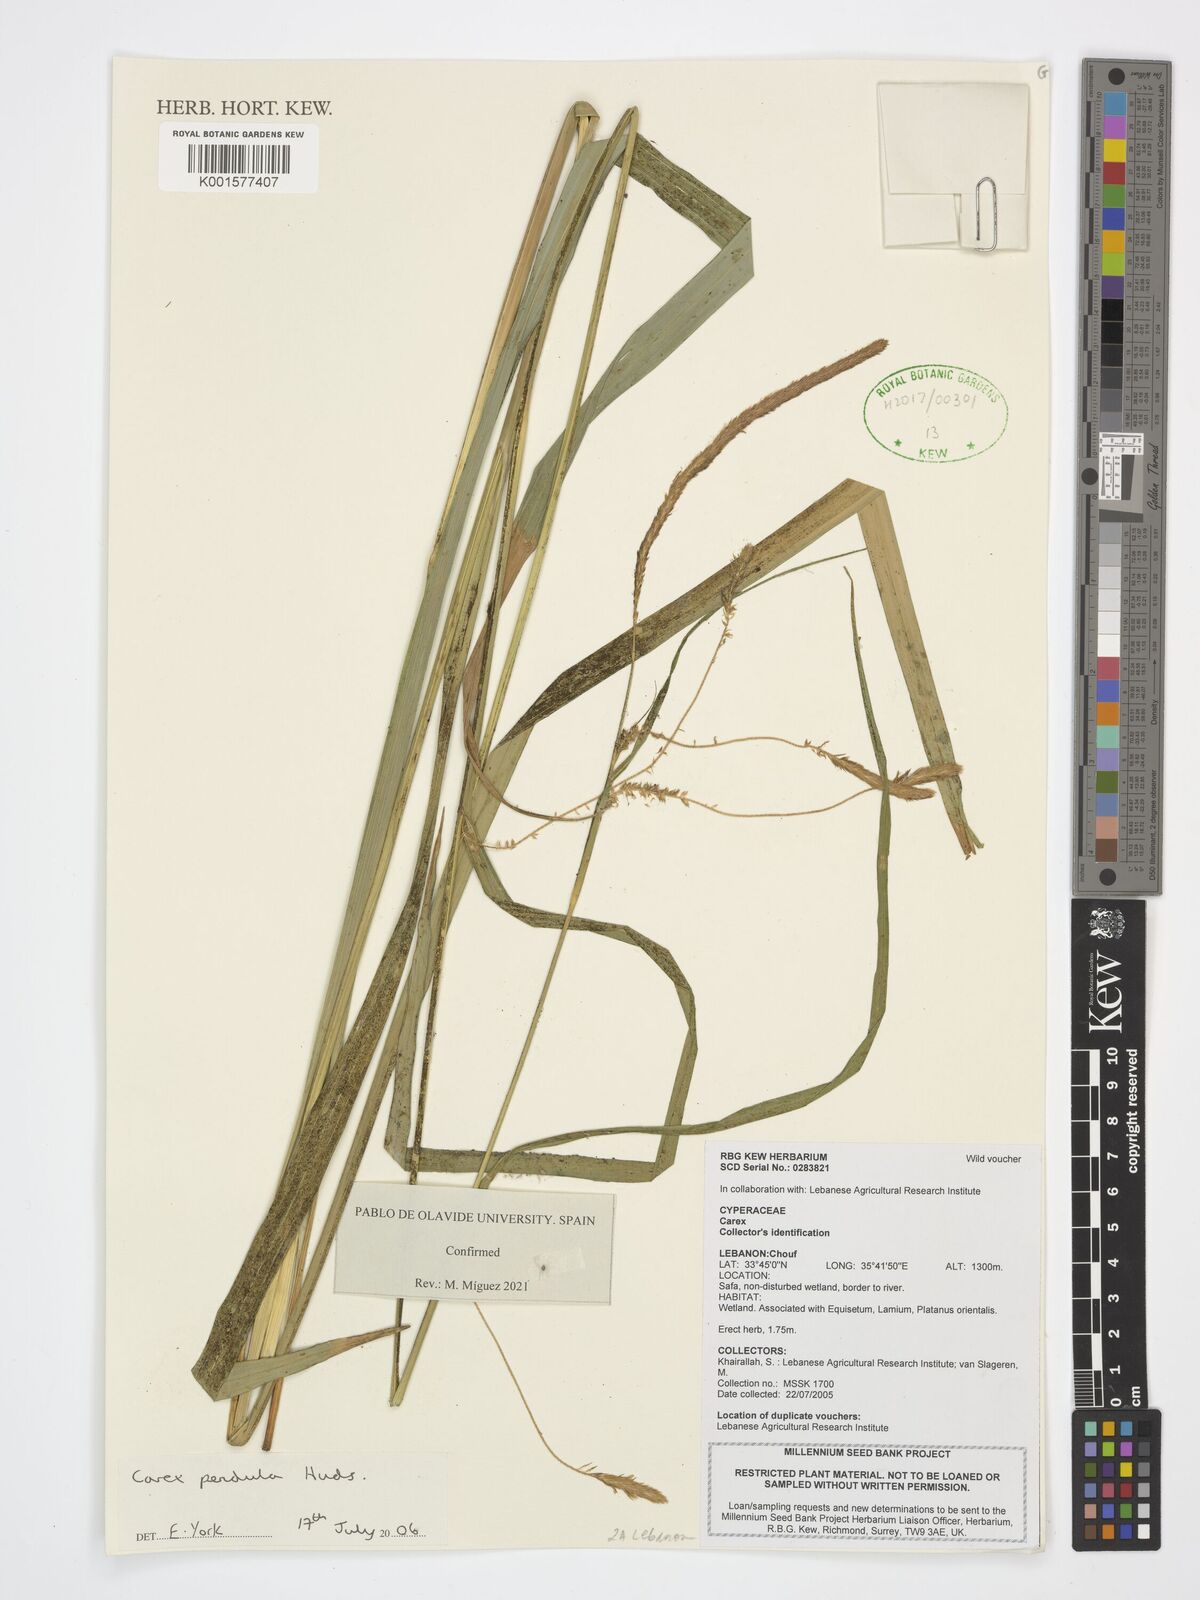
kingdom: Plantae
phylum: Tracheophyta
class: Liliopsida
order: Poales
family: Cyperaceae
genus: Carex
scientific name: Carex pendula
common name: Pendulous sedge
